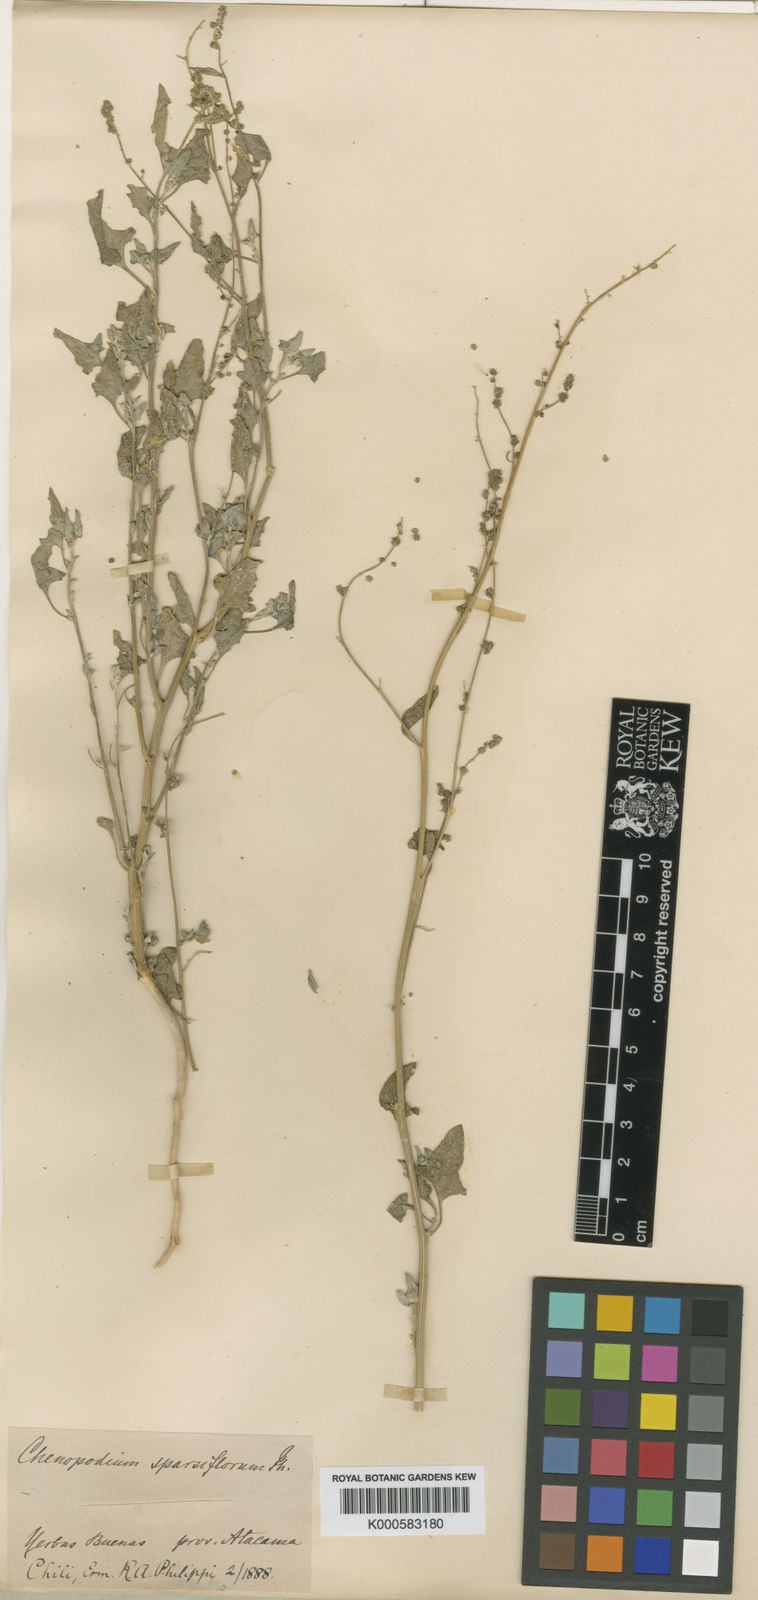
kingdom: Plantae
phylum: Tracheophyta
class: Magnoliopsida
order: Caryophyllales
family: Amaranthaceae
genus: Chenopodium
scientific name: Chenopodium petiolare
